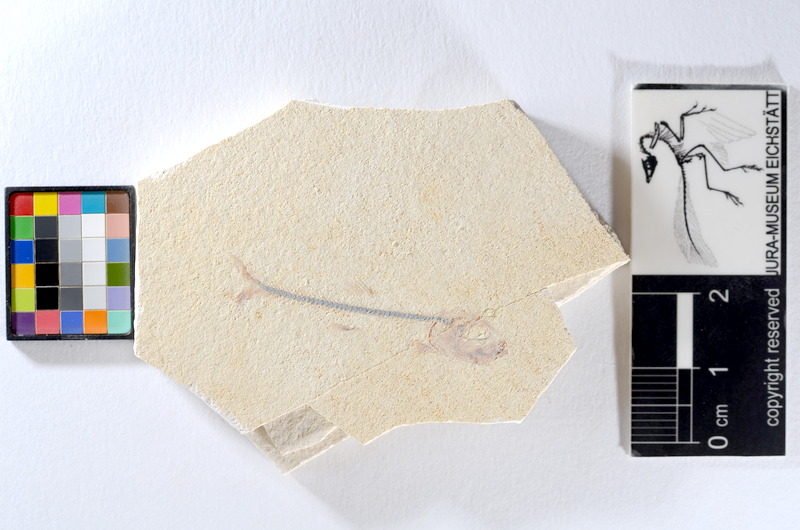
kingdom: Animalia
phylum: Chordata
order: Salmoniformes
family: Orthogonikleithridae
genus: Orthogonikleithrus
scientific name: Orthogonikleithrus hoelli
